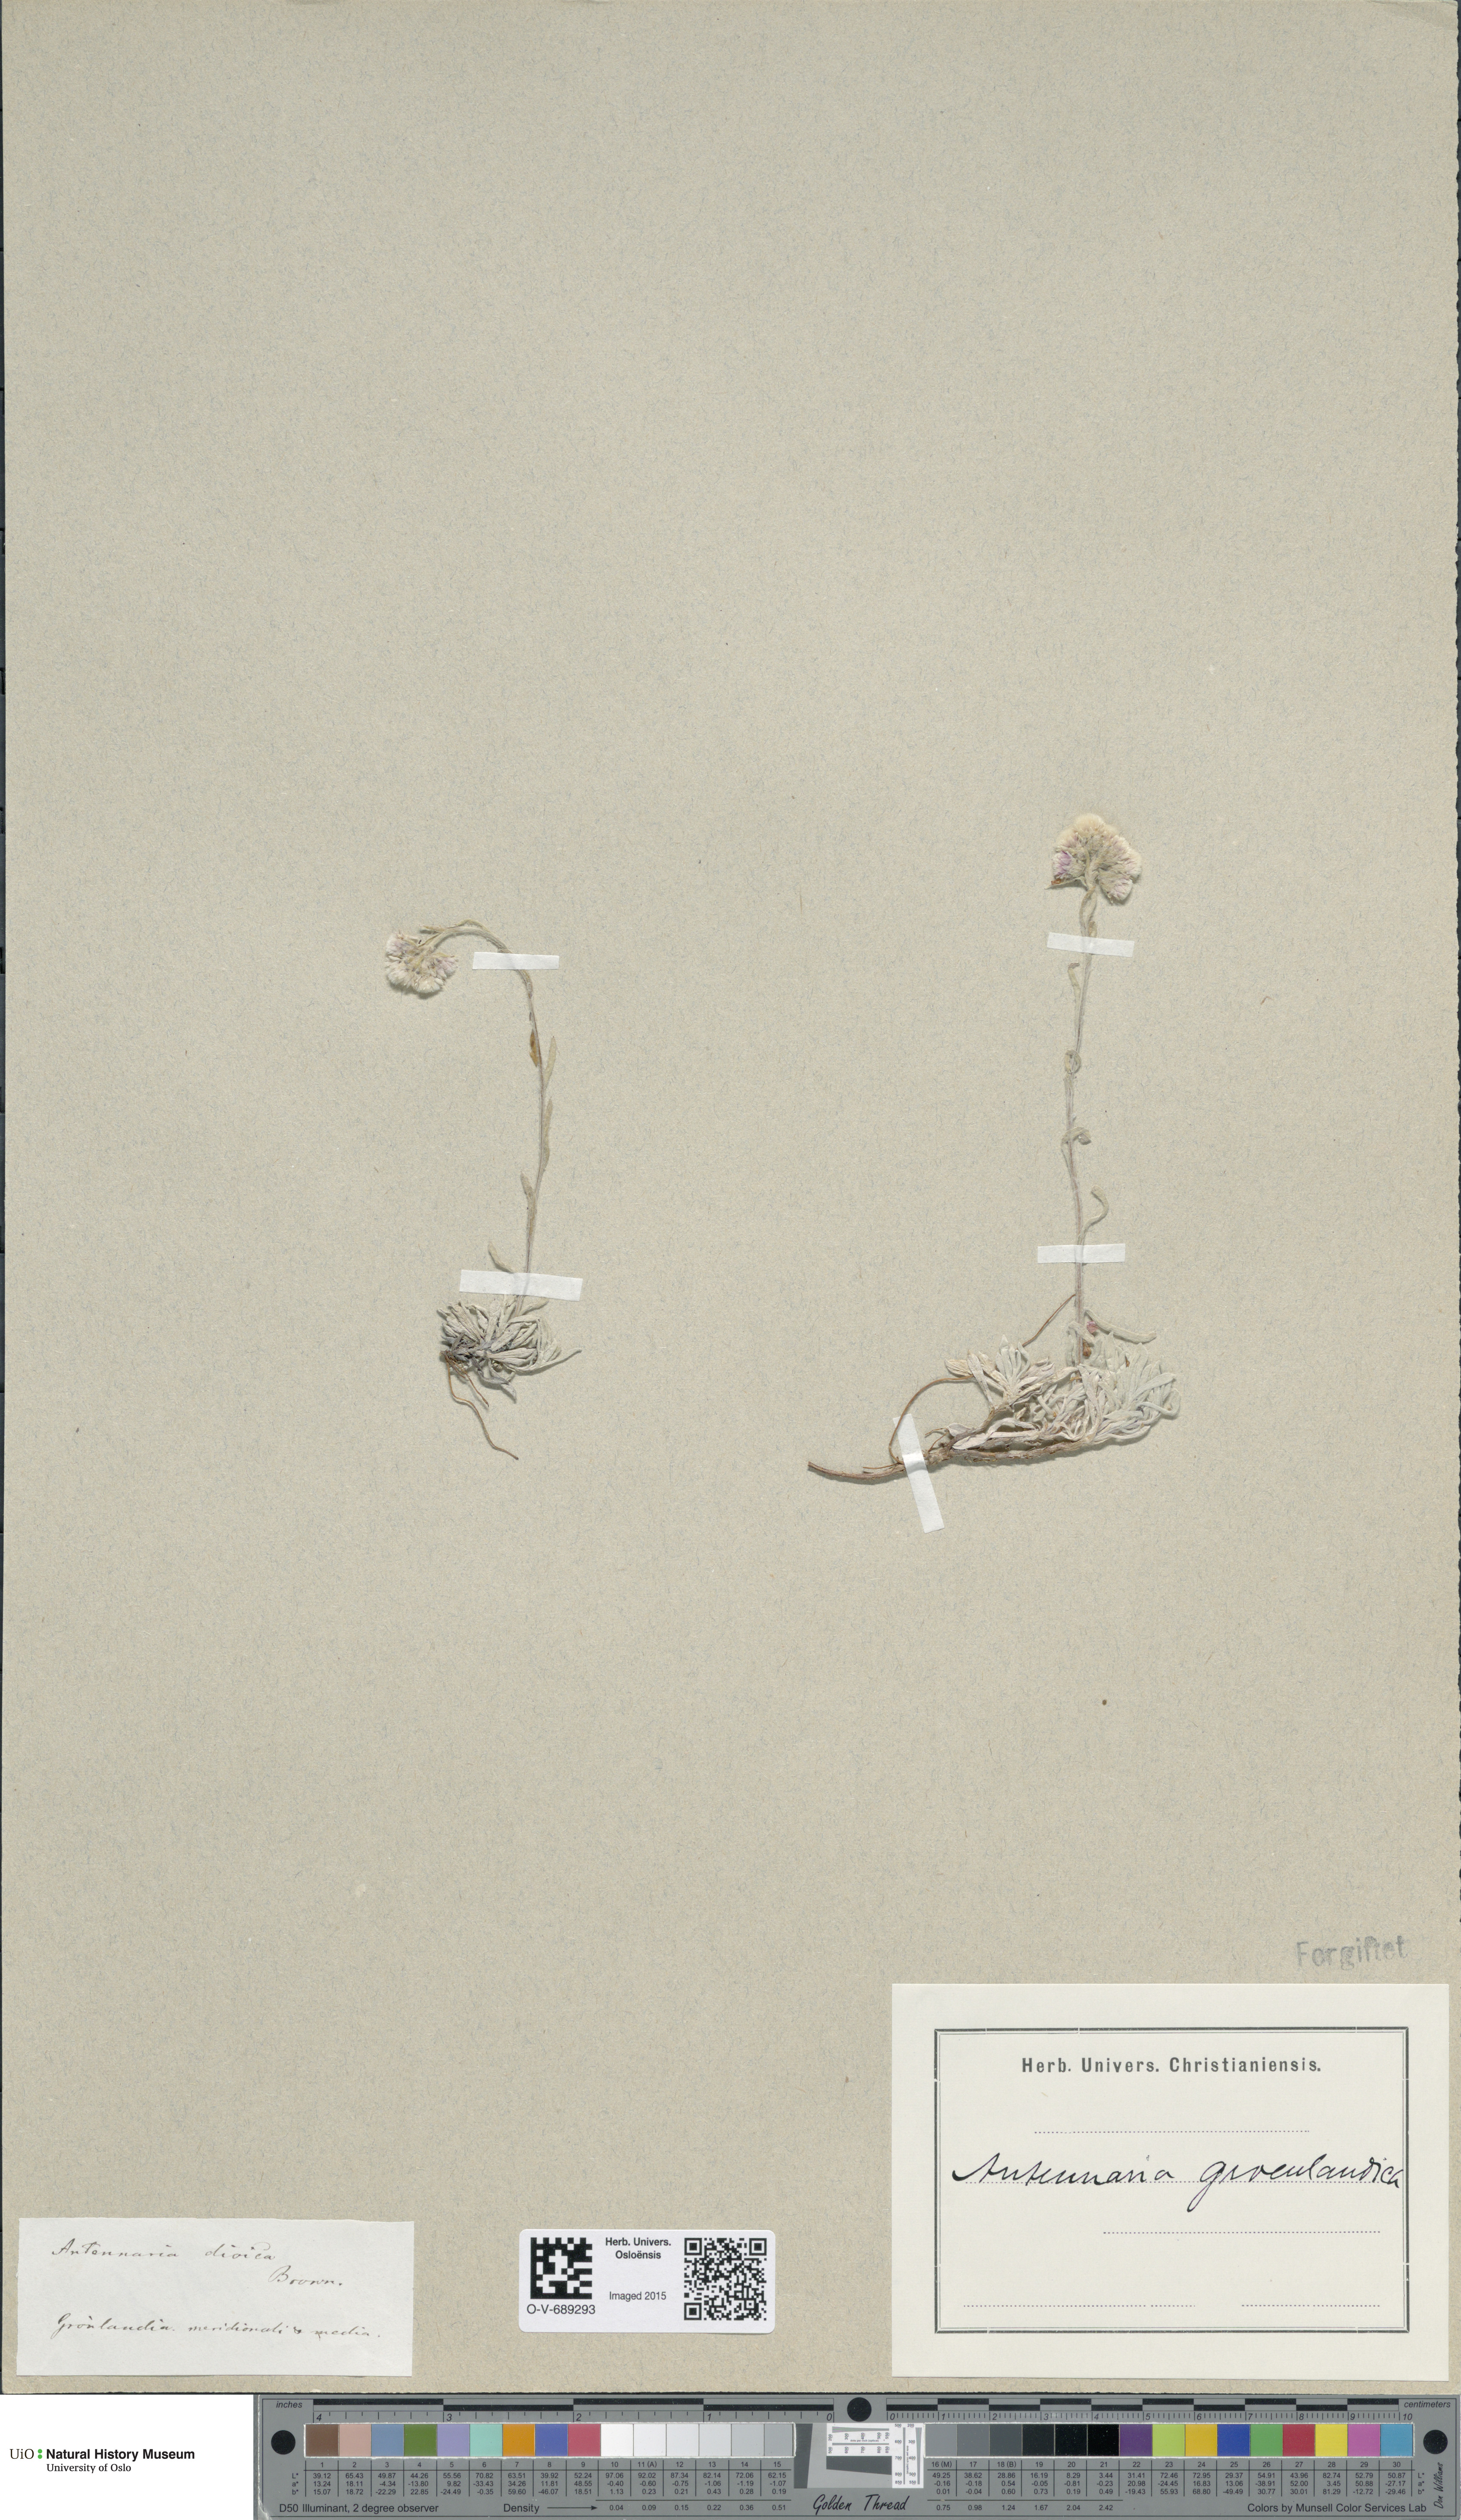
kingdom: Plantae
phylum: Tracheophyta
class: Magnoliopsida
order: Asterales
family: Asteraceae
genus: Antennaria
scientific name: Antennaria rosea
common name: Rosy pussytoes
